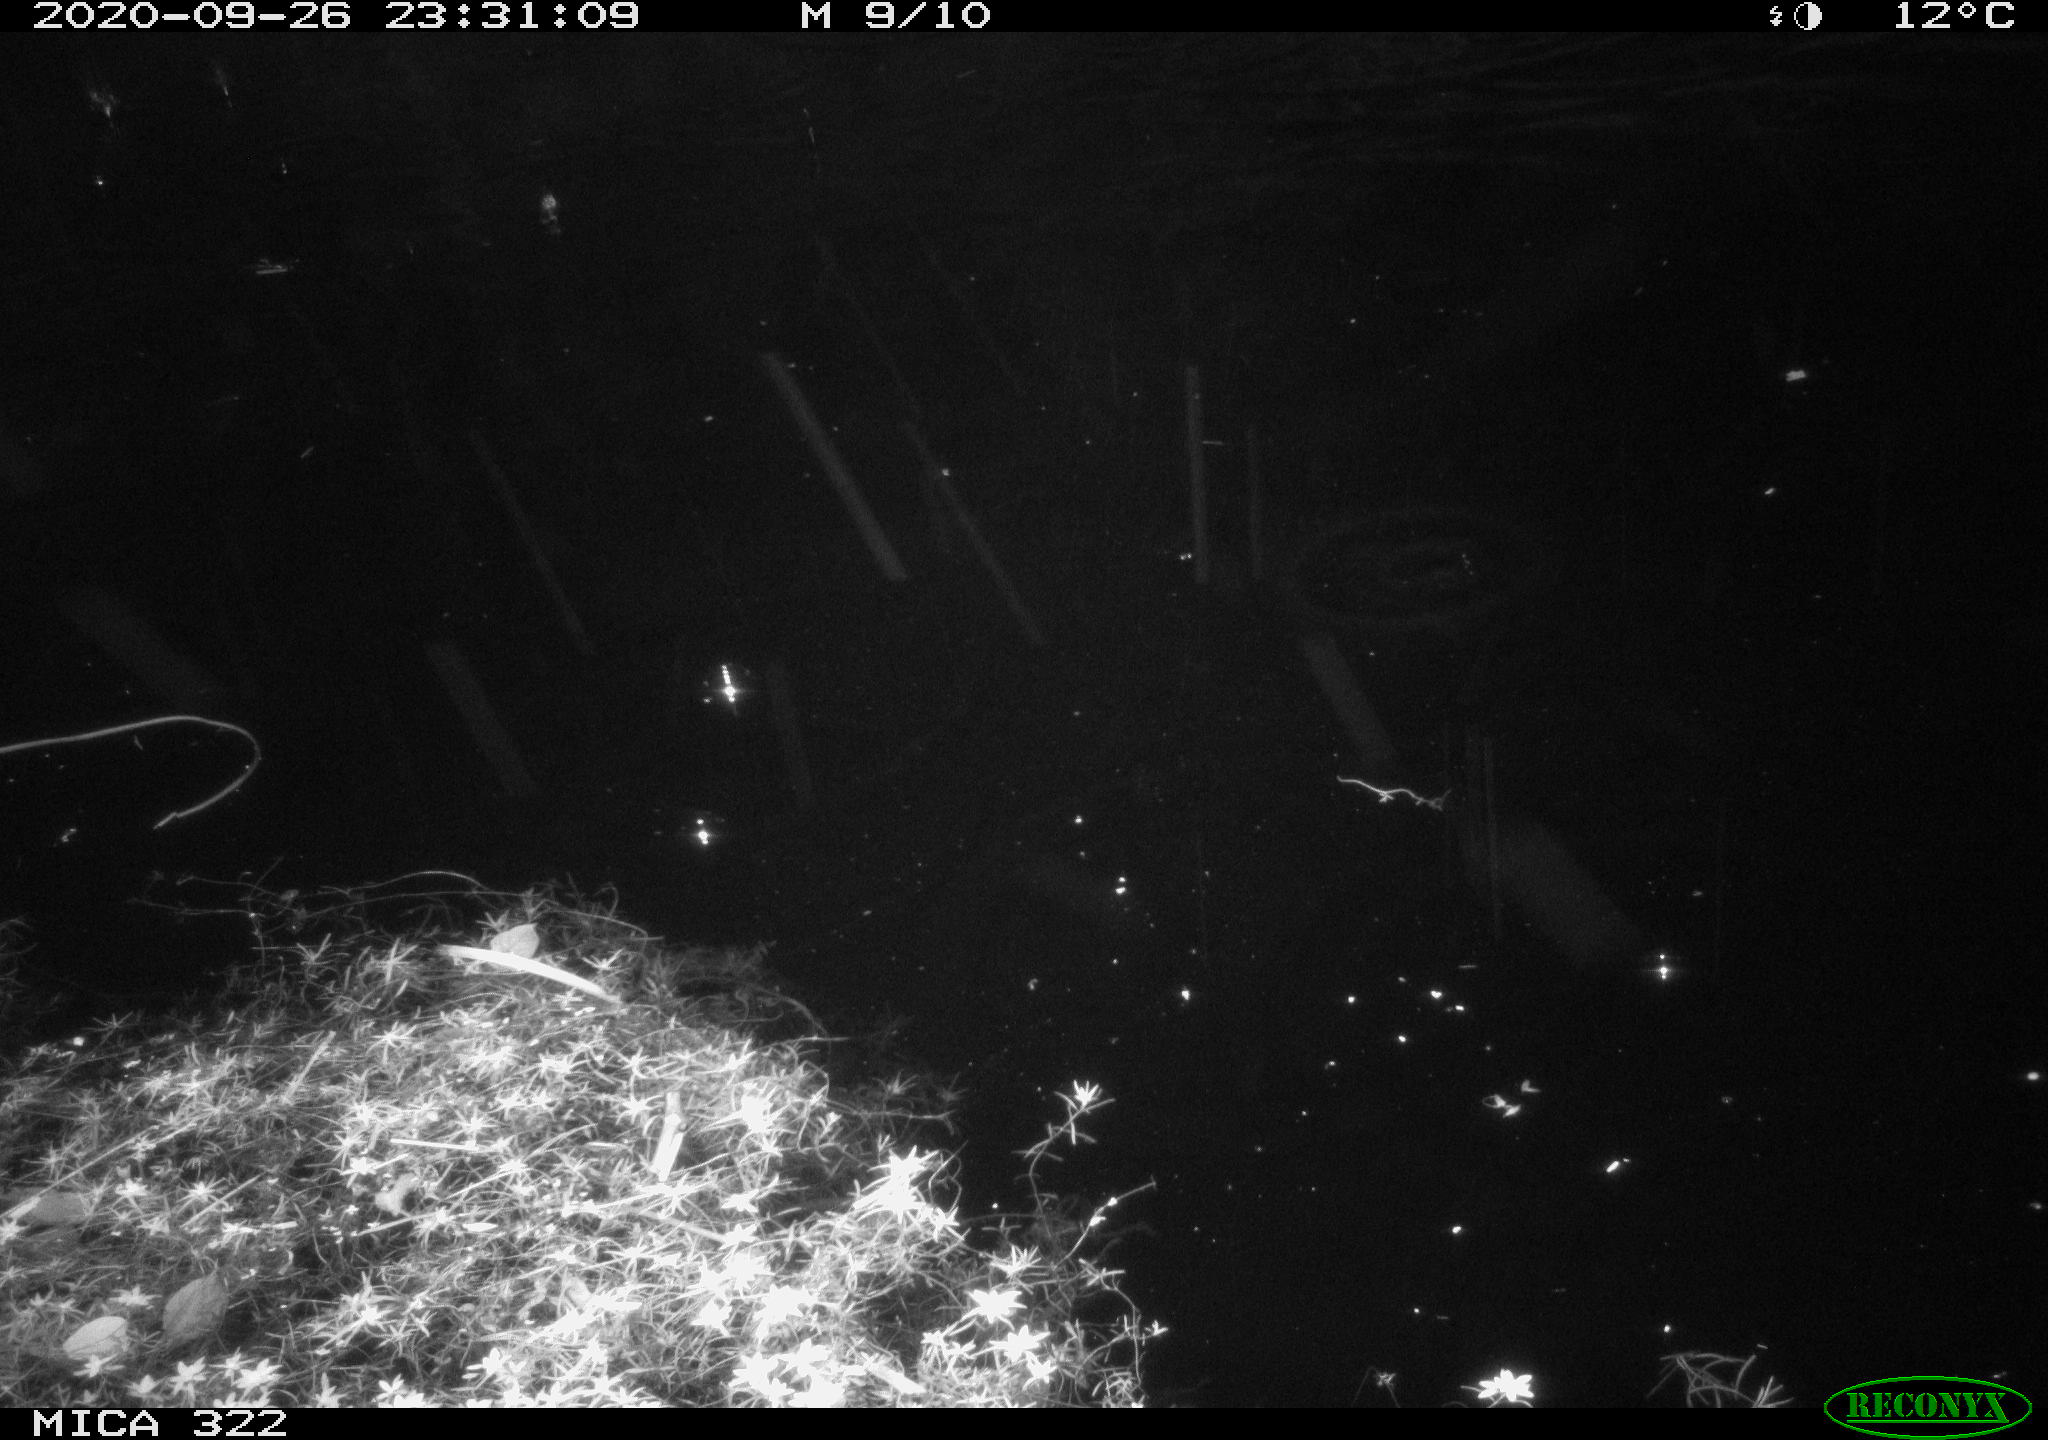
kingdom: Animalia
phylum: Chordata
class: Mammalia
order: Rodentia
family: Muridae
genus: Rattus
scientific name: Rattus norvegicus
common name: Brown rat
